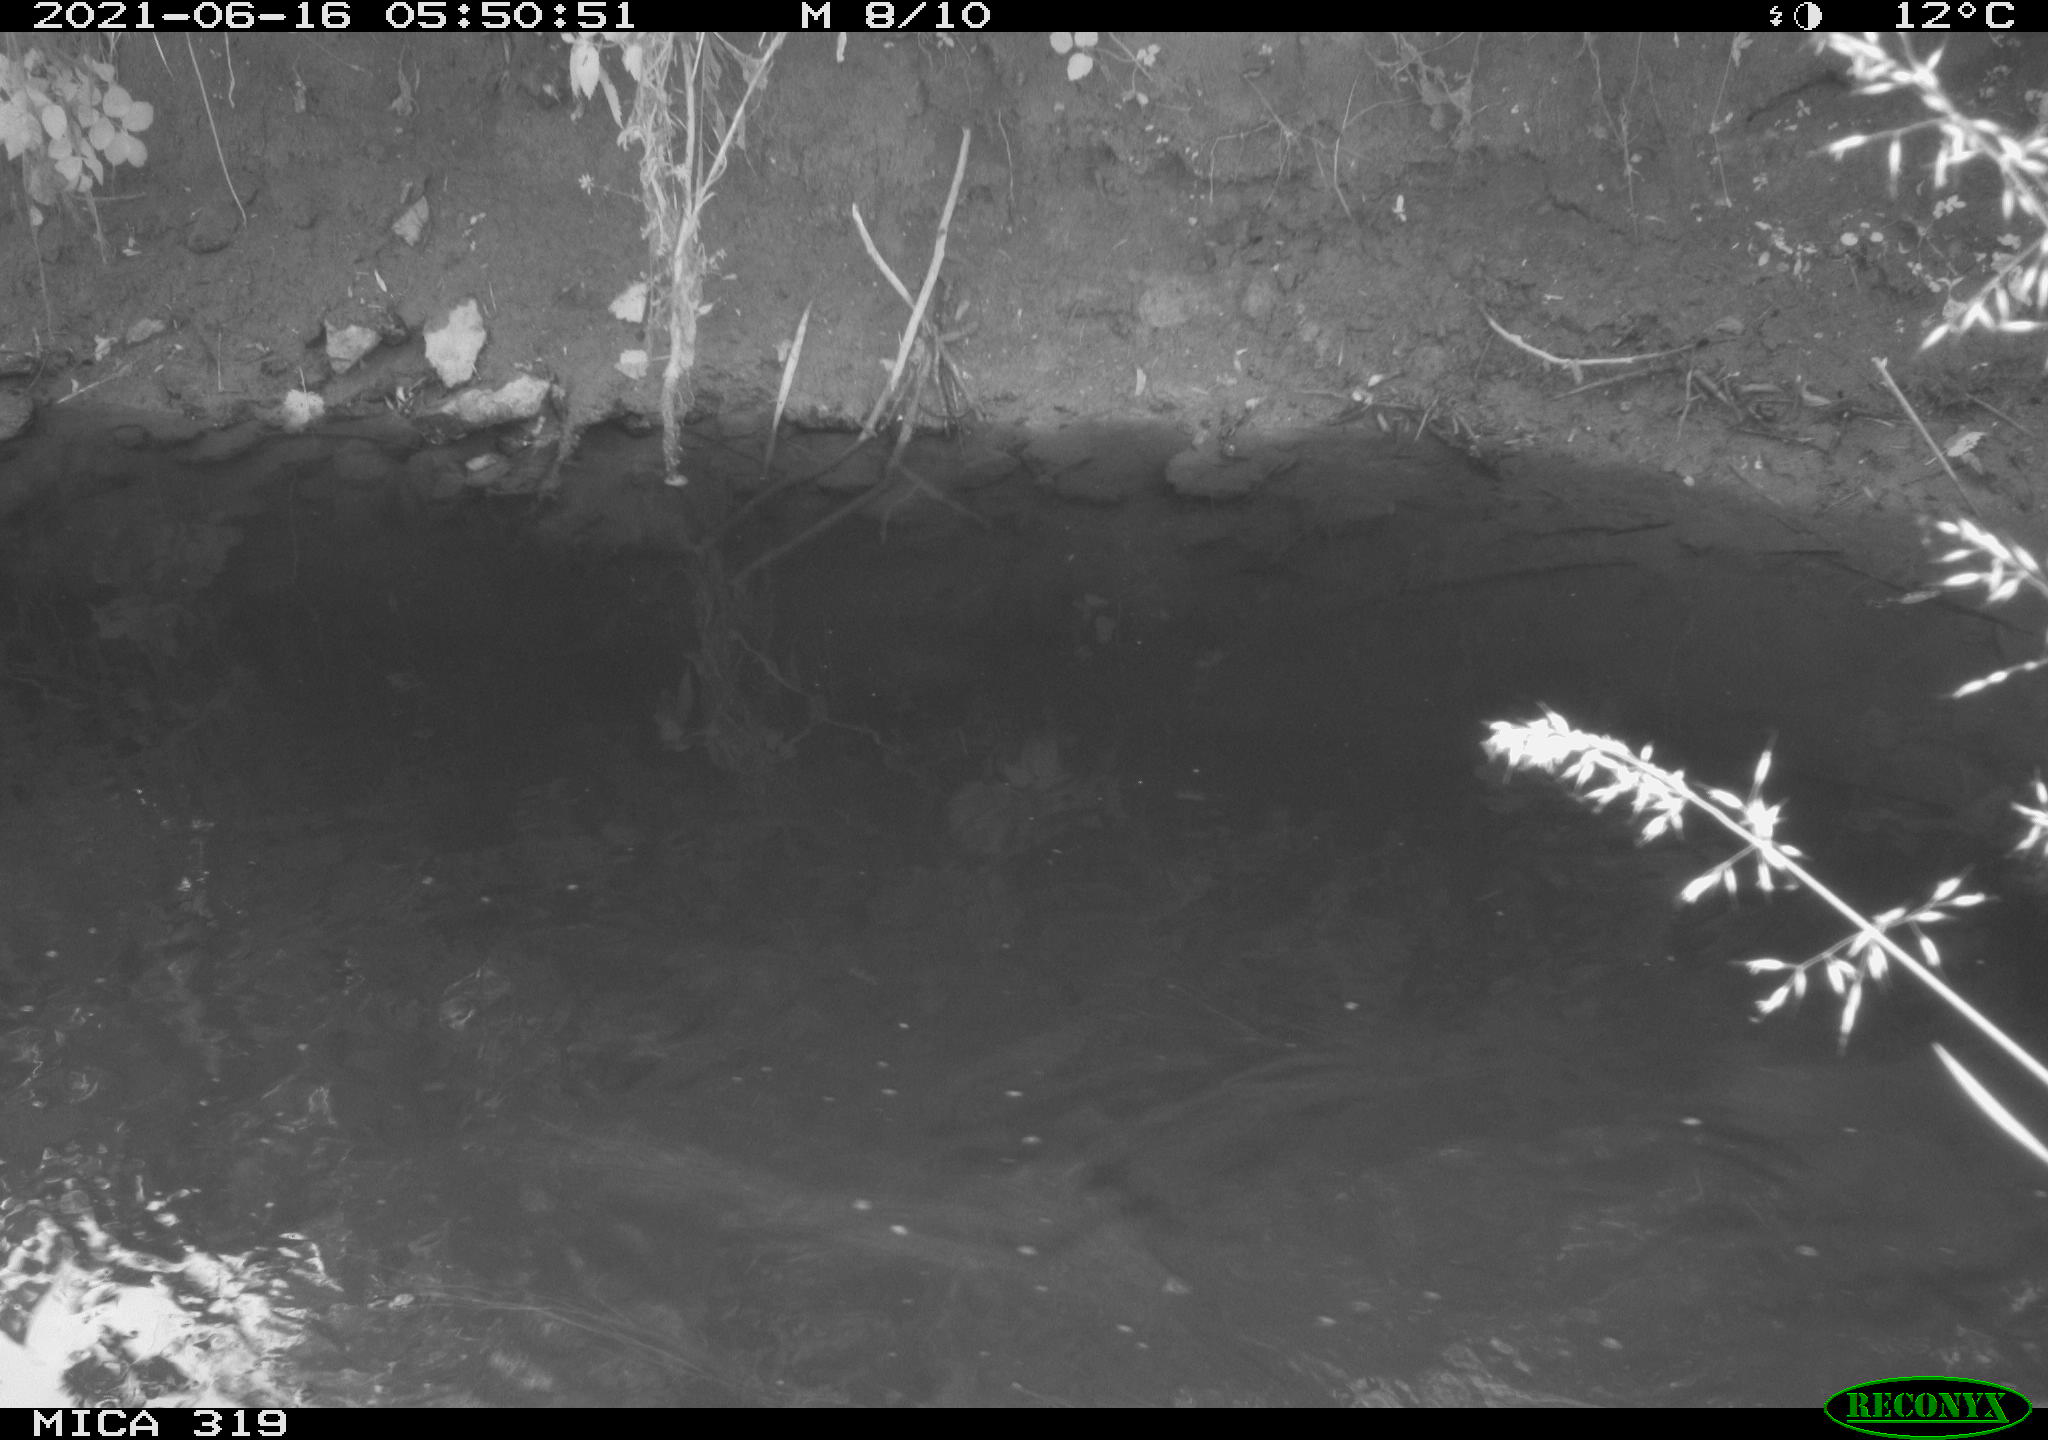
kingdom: Animalia
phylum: Chordata
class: Aves
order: Anseriformes
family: Anatidae
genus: Anas
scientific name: Anas platyrhynchos
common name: Mallard
